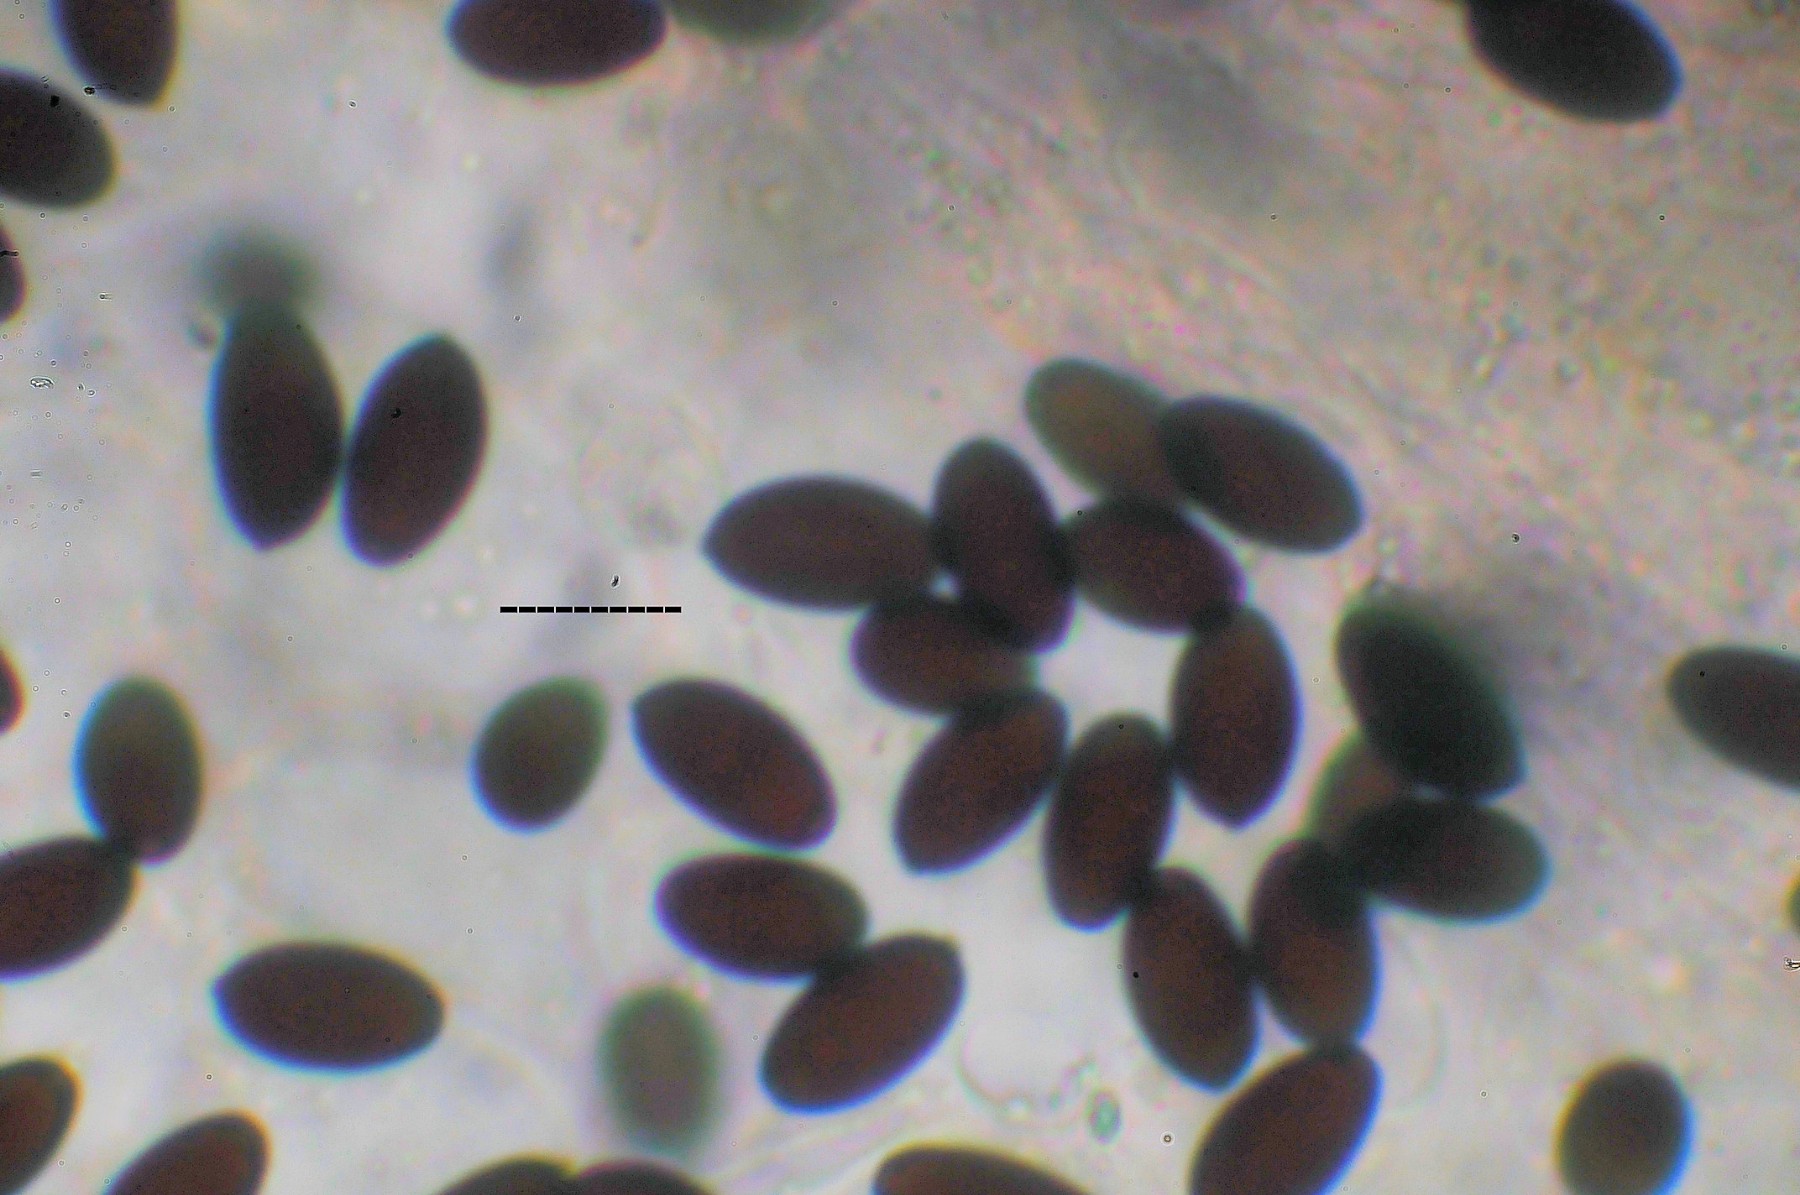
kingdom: Fungi
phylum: Basidiomycota
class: Agaricomycetes
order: Agaricales
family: Psathyrellaceae
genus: Coprinopsis
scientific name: Coprinopsis lagopus
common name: dunstokket blækhat
